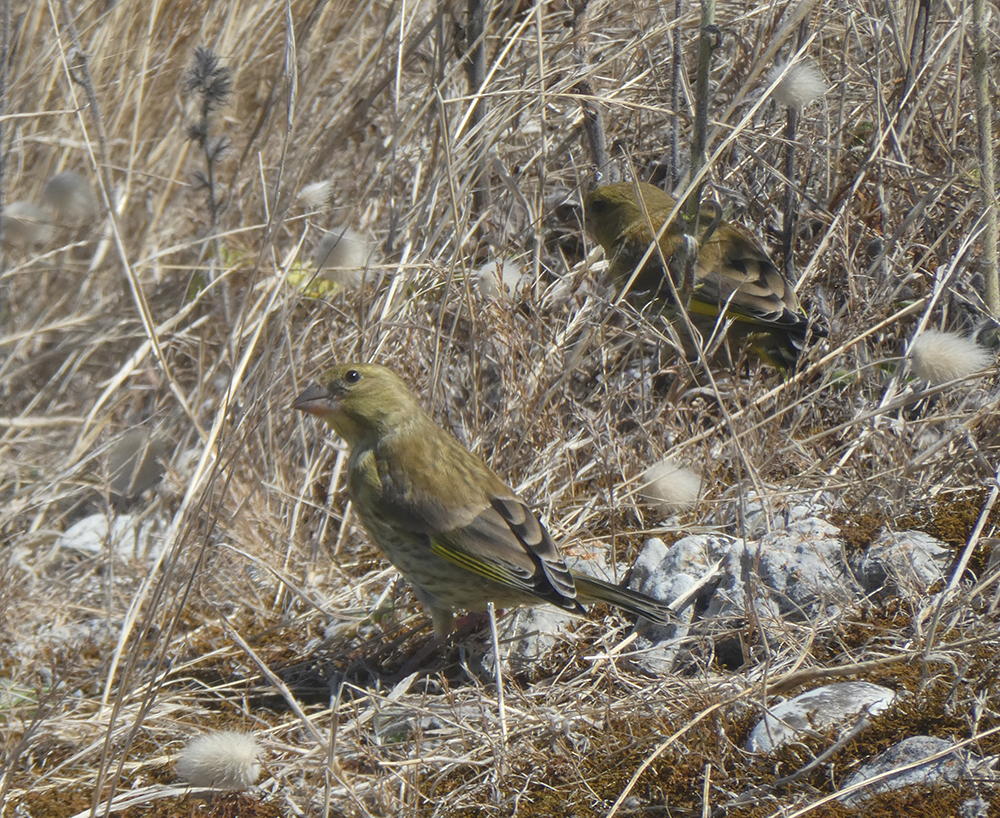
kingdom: Plantae
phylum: Tracheophyta
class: Liliopsida
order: Poales
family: Poaceae
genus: Chloris
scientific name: Chloris chloris
